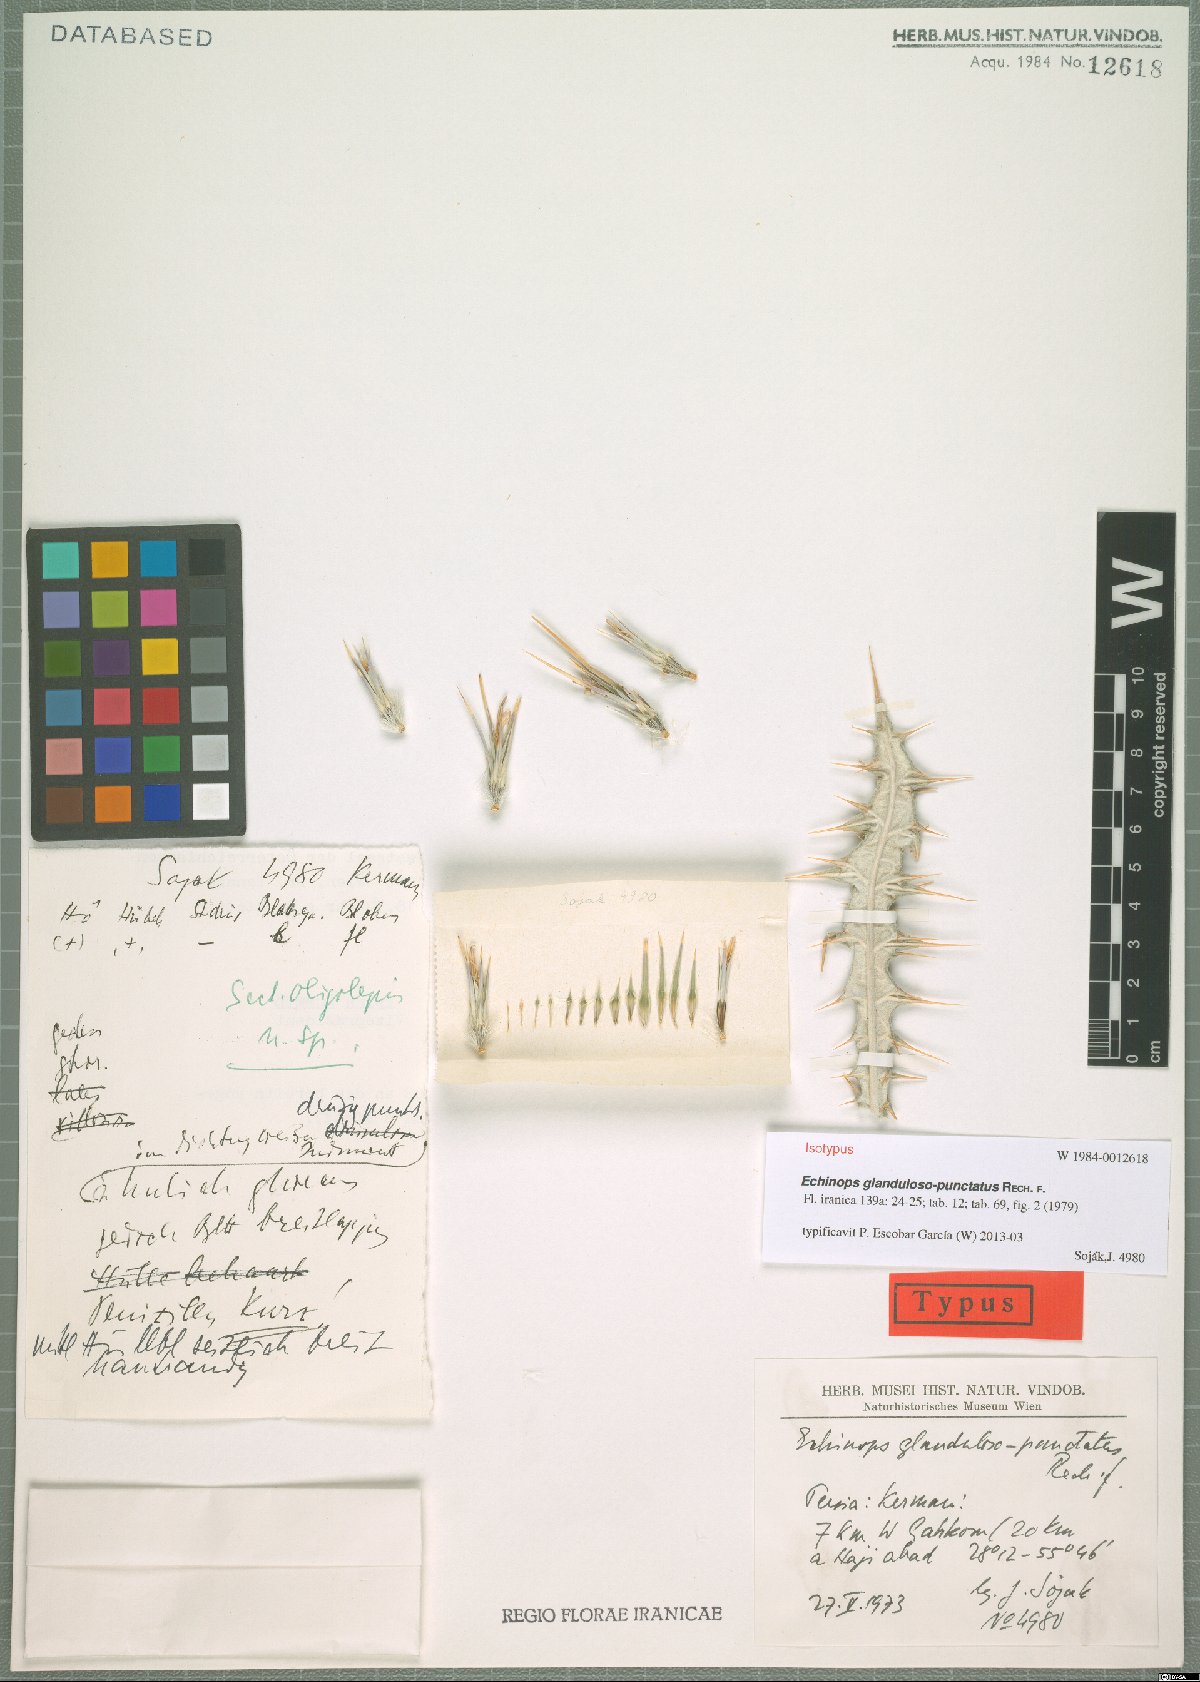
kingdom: Plantae
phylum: Tracheophyta
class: Magnoliopsida
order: Asterales
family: Asteraceae
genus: Echinops
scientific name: Echinops glandulosopunctatus
